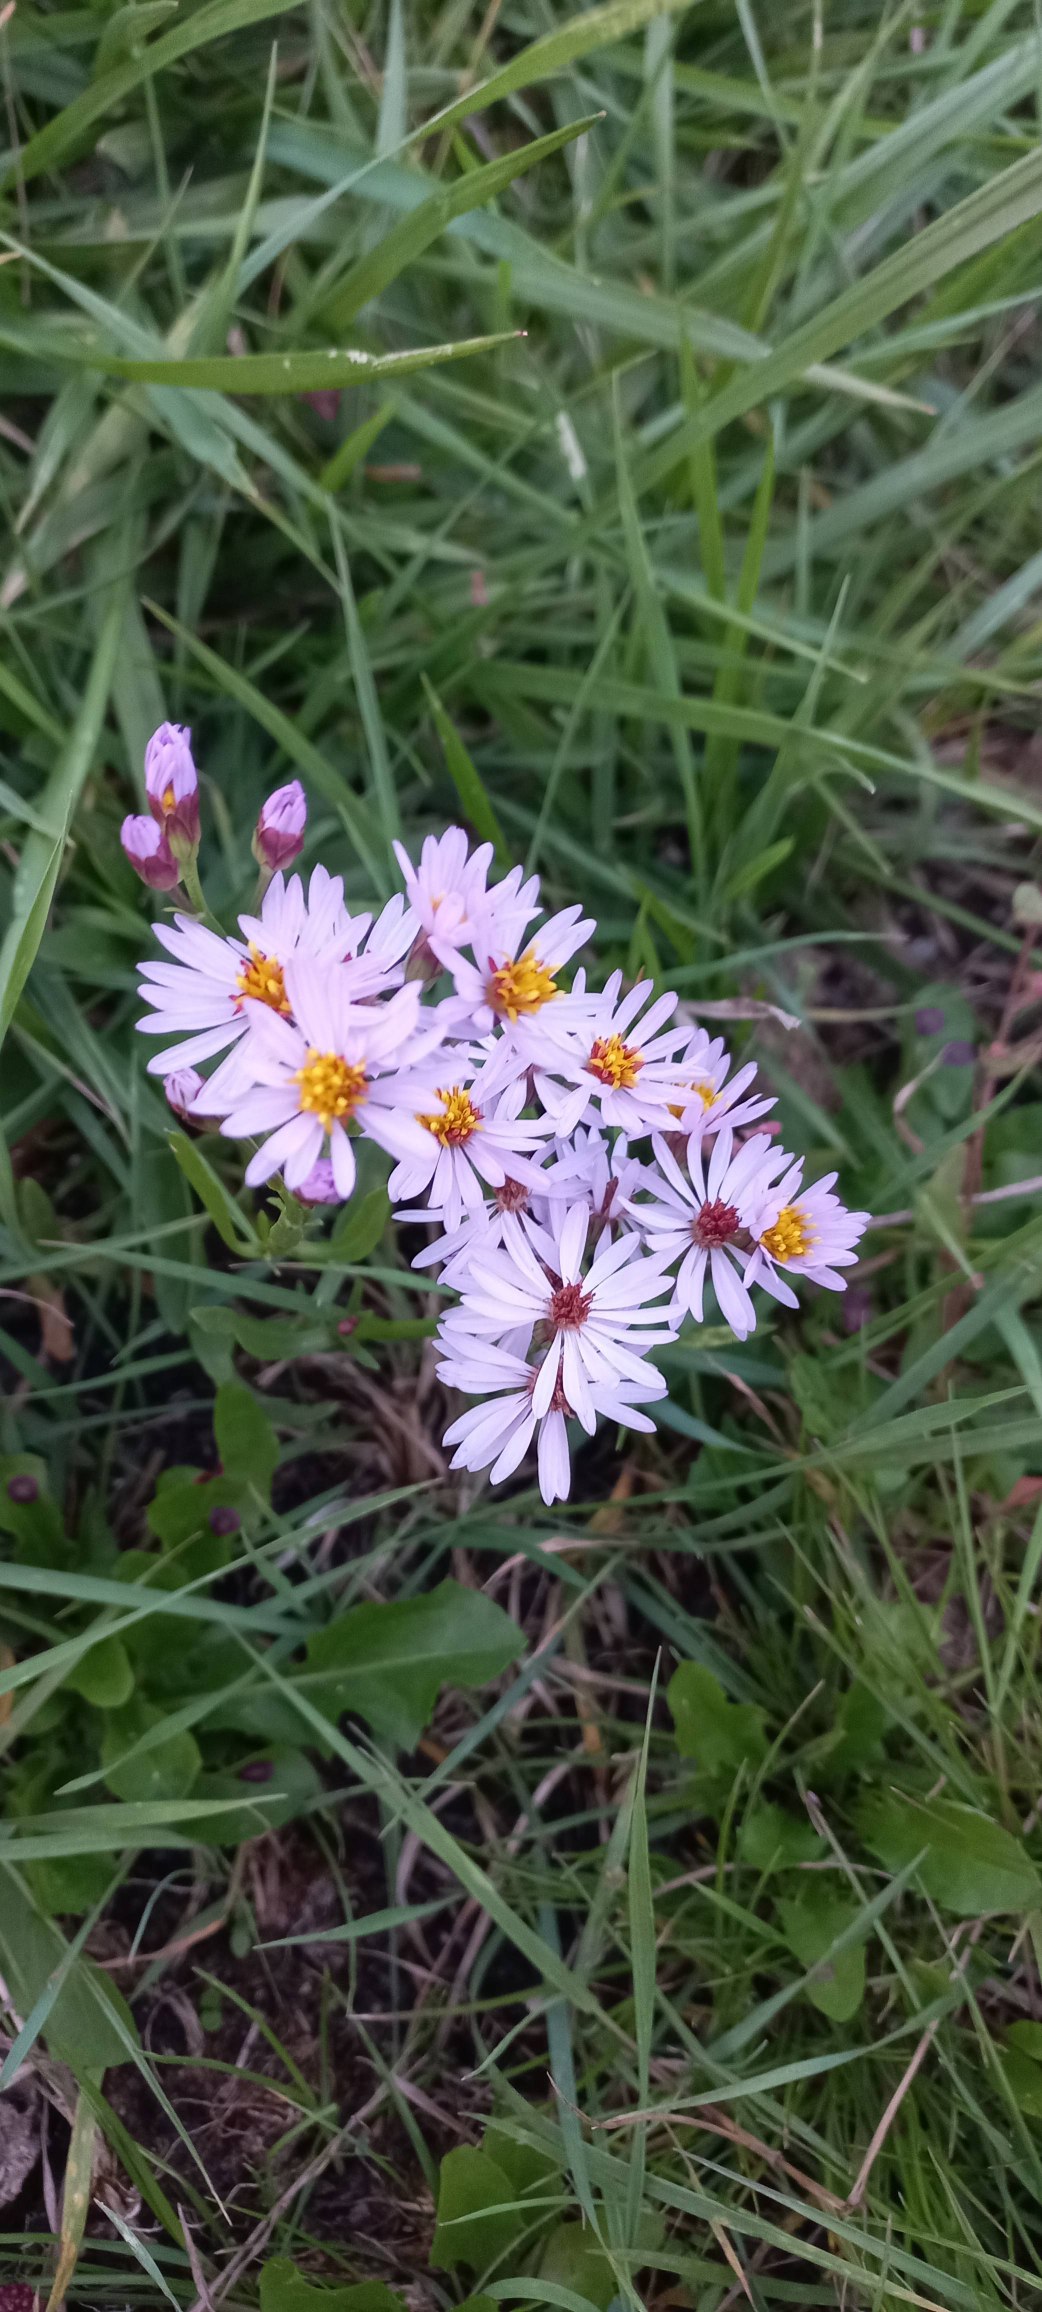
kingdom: Plantae
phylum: Tracheophyta
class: Magnoliopsida
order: Asterales
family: Asteraceae
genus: Tripolium
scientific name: Tripolium pannonicum
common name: Strandasters
